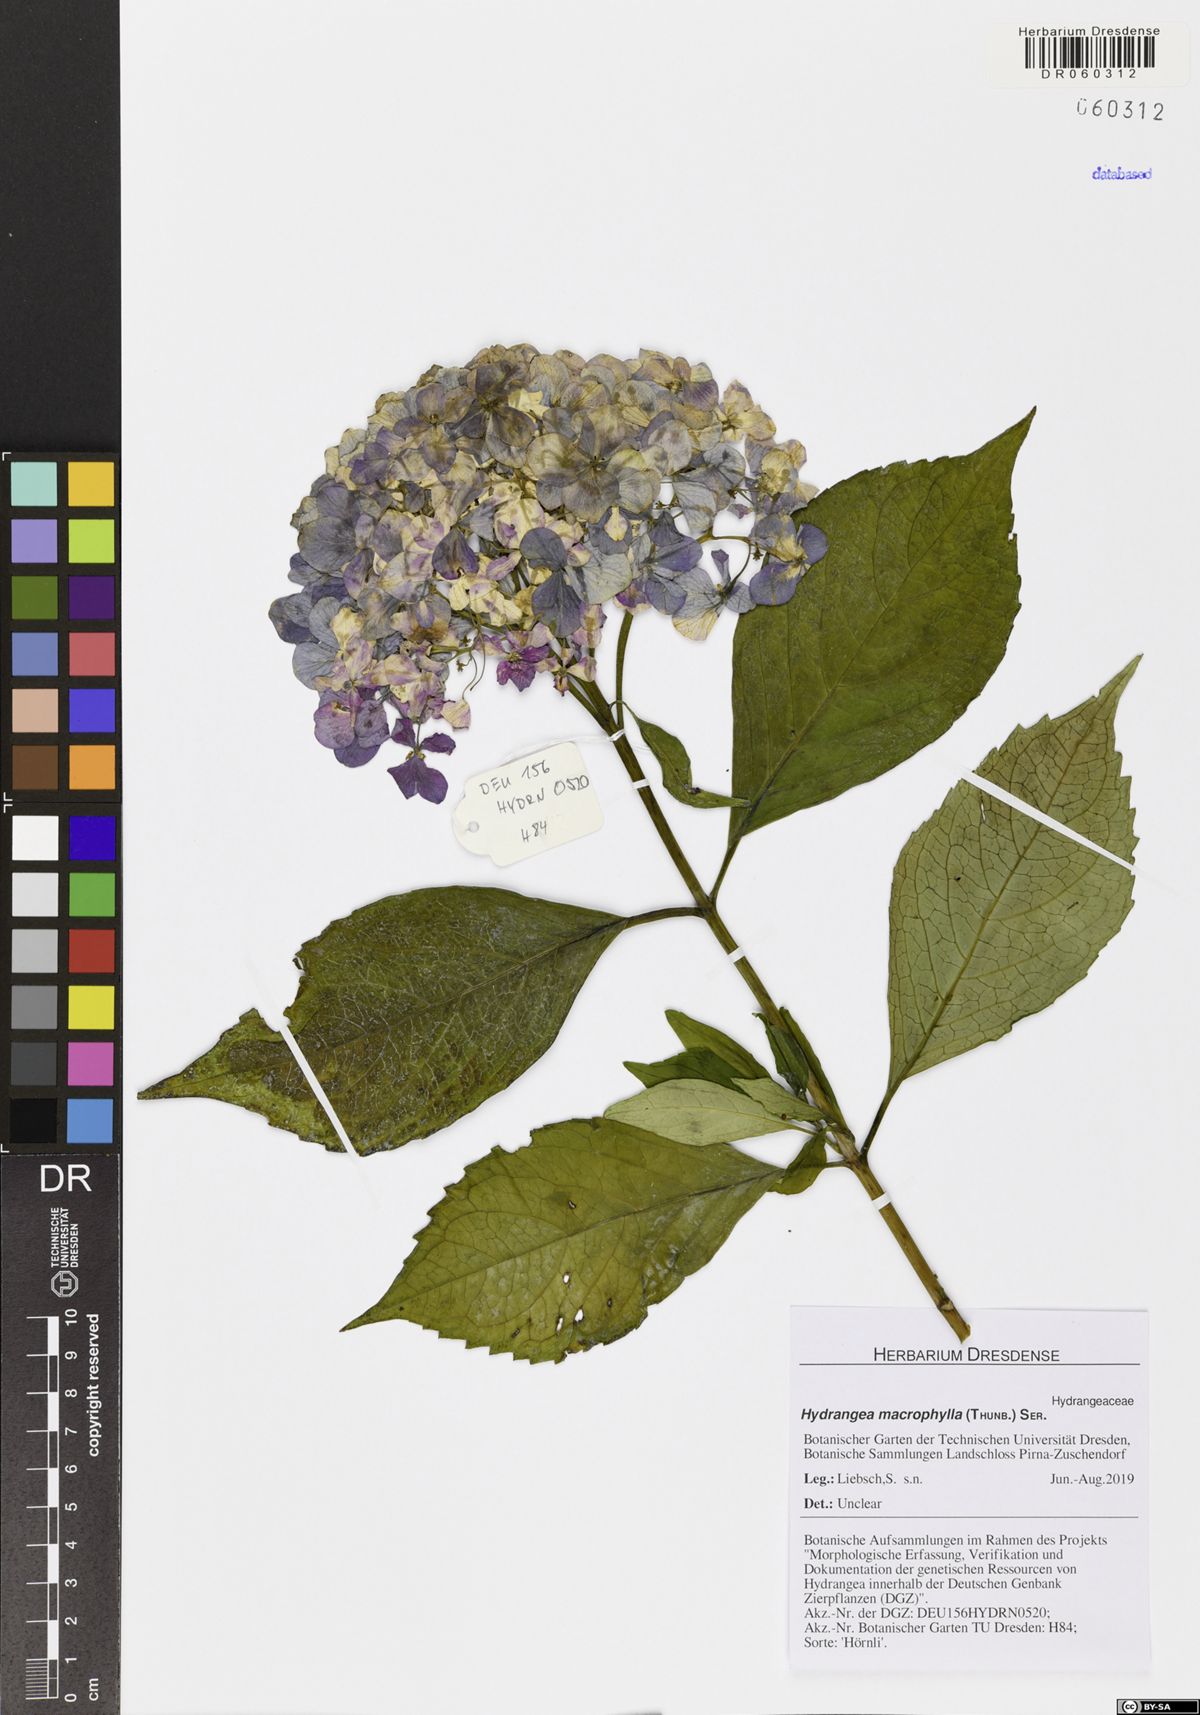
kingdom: Plantae
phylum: Tracheophyta
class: Magnoliopsida
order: Cornales
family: Hydrangeaceae
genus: Hydrangea
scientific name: Hydrangea macrophylla
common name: Hydrangea
